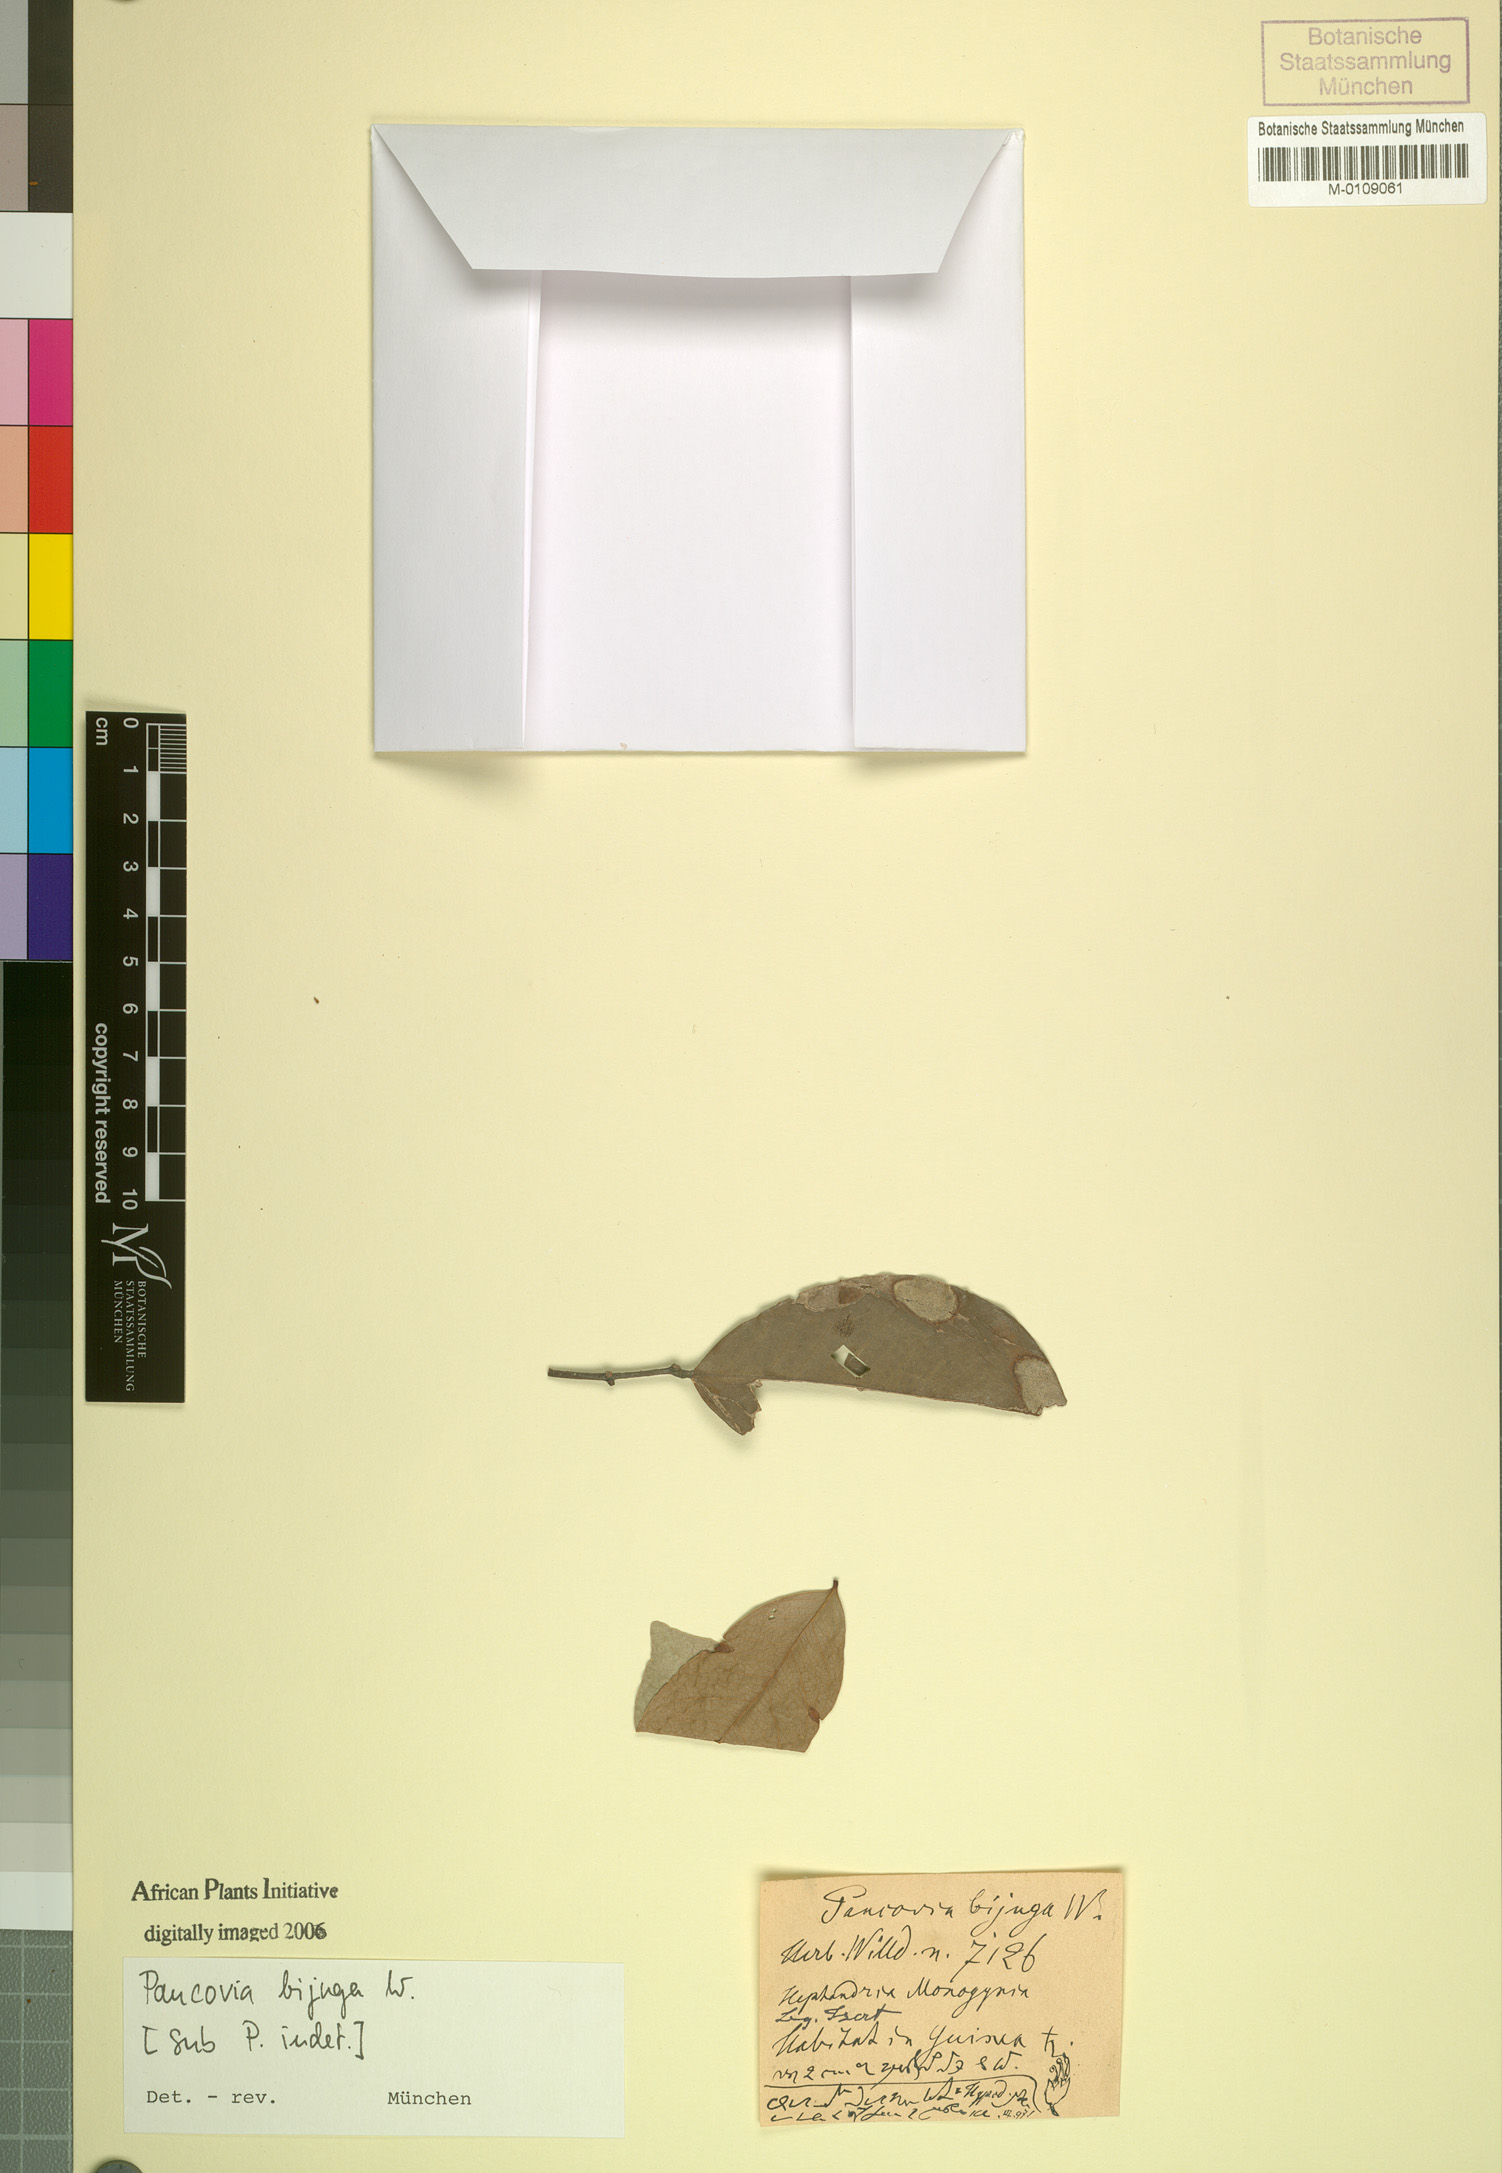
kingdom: Plantae
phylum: Tracheophyta
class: Magnoliopsida
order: Sapindales
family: Sapindaceae
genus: Pancovia
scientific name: Pancovia bijuga
